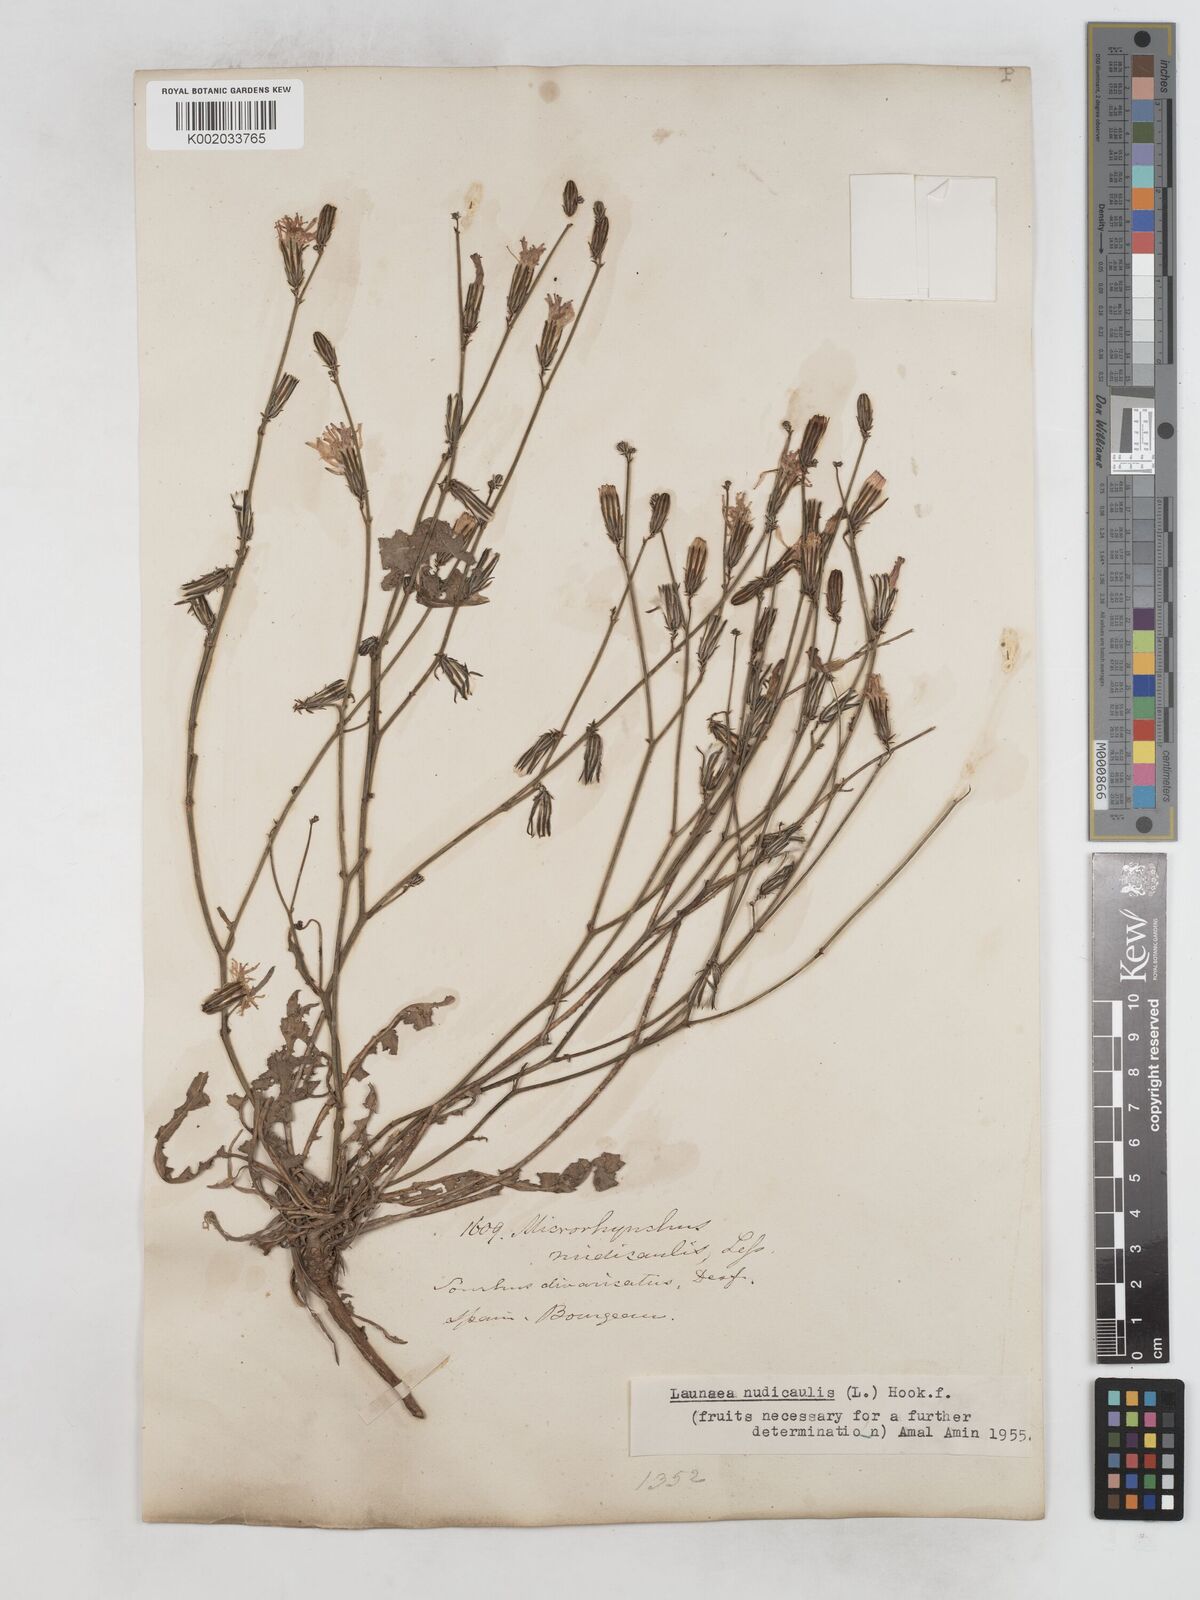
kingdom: Plantae
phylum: Tracheophyta
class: Magnoliopsida
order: Asterales
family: Asteraceae
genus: Launaea
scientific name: Launaea nudicaulis
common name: Naked launaea
